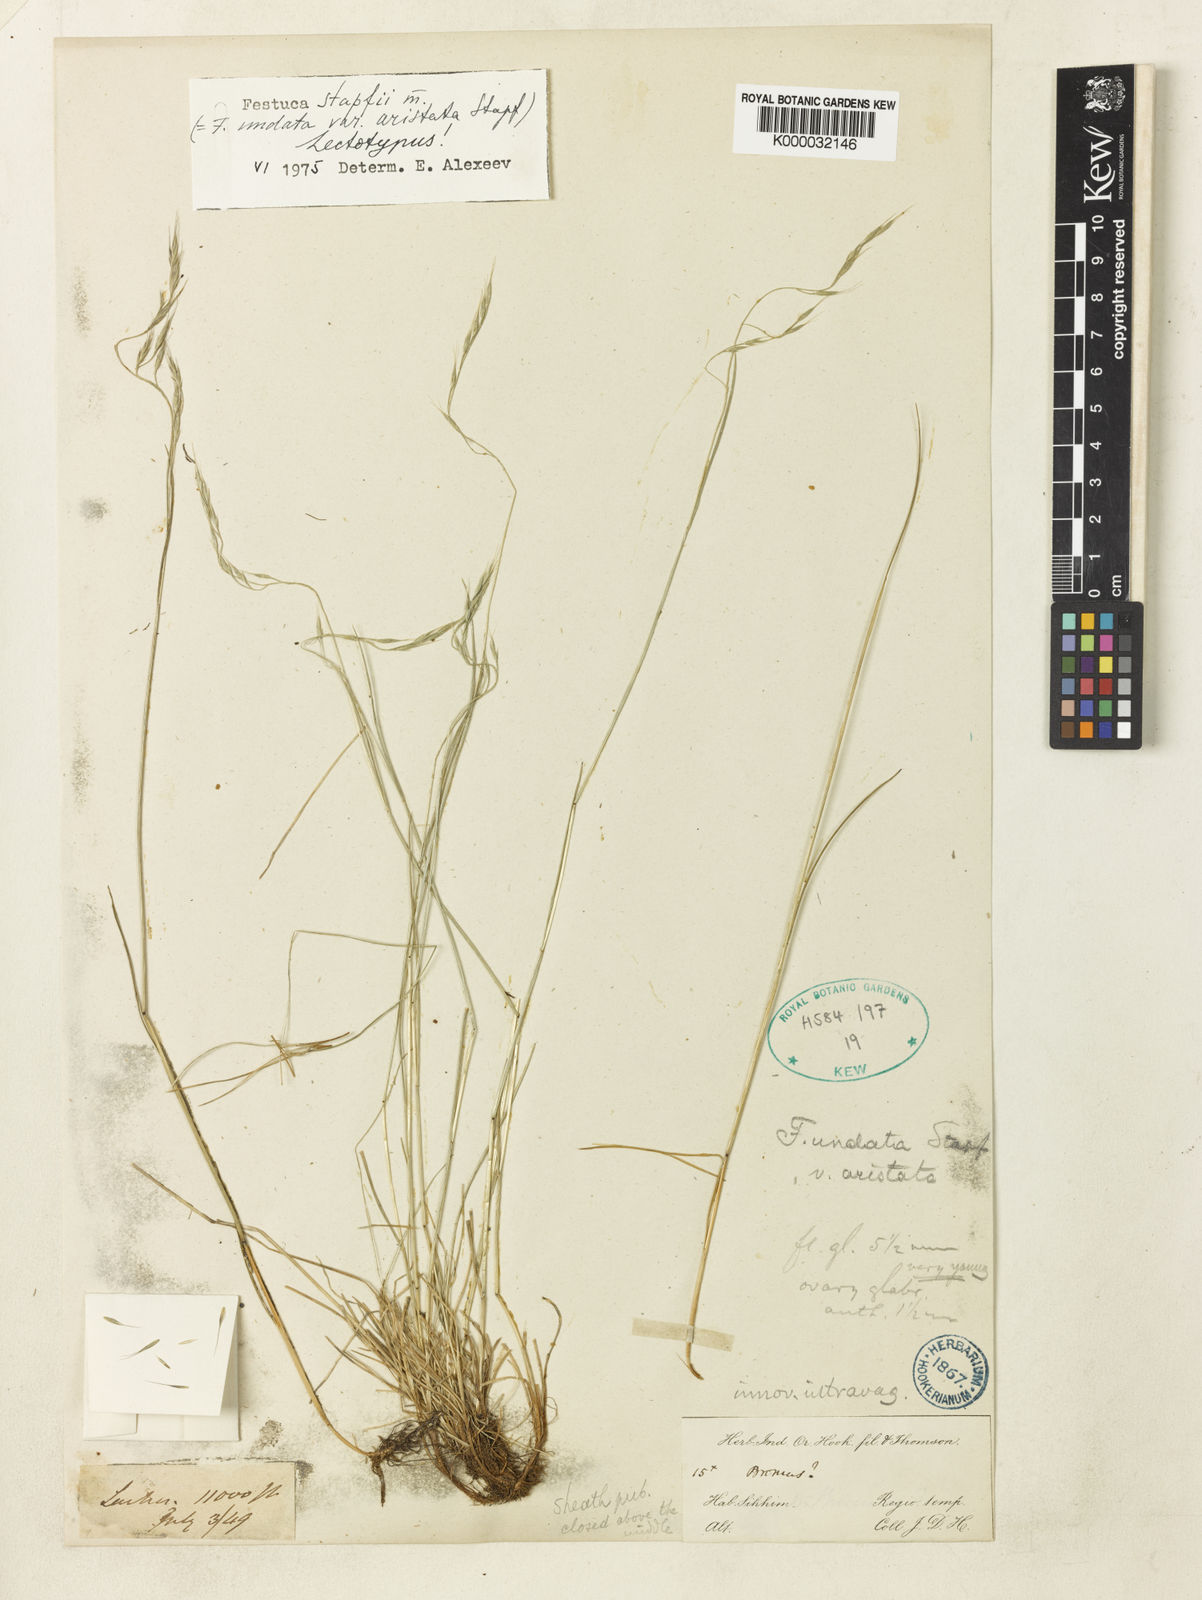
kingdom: Plantae
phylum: Tracheophyta
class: Liliopsida
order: Poales
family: Poaceae
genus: Festuca
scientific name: Festuca undata
